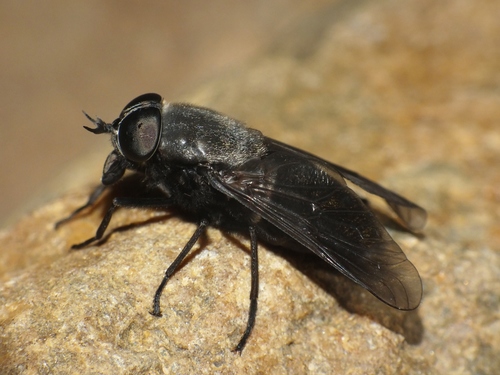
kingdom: Animalia
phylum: Arthropoda
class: Insecta
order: Diptera
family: Tabanidae
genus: Dasyrhamphis
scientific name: Dasyrhamphis ater
